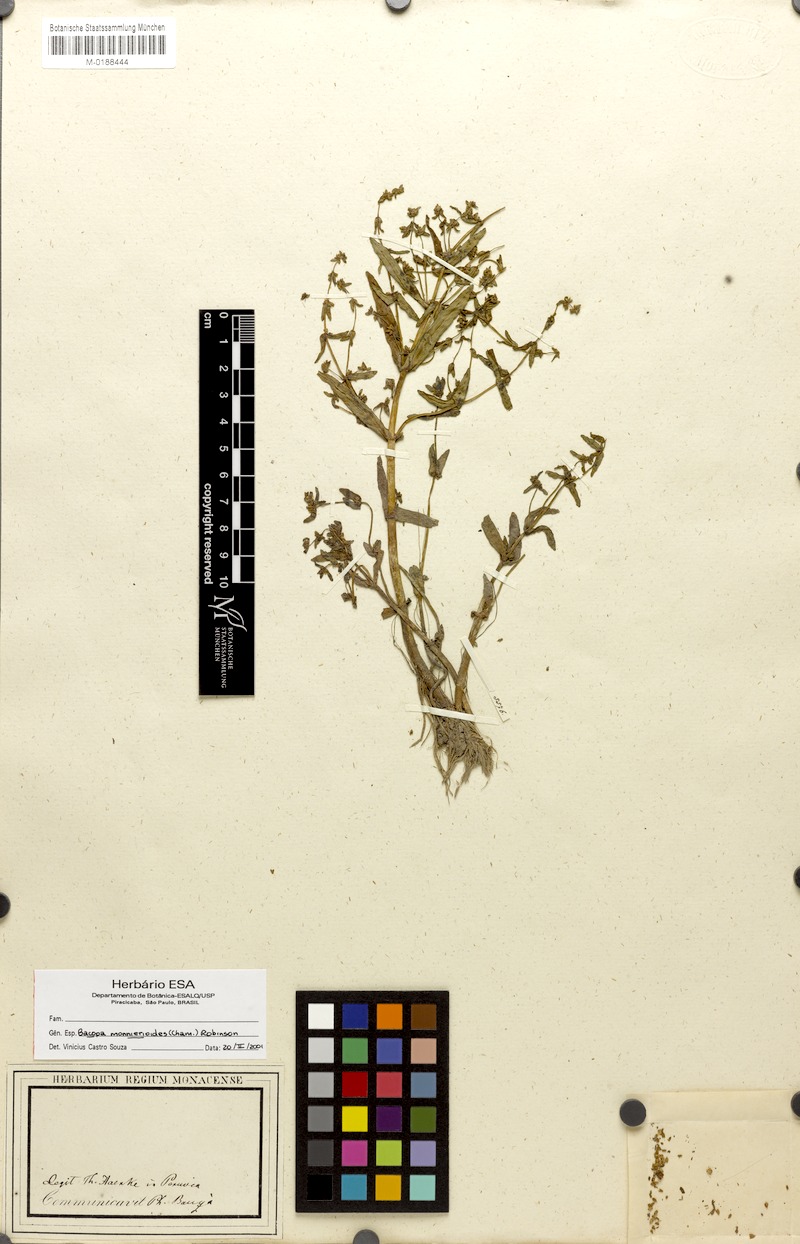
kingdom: Plantae
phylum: Tracheophyta
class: Magnoliopsida
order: Lamiales
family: Plantaginaceae
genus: Bacopa
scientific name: Bacopa monnierioides
